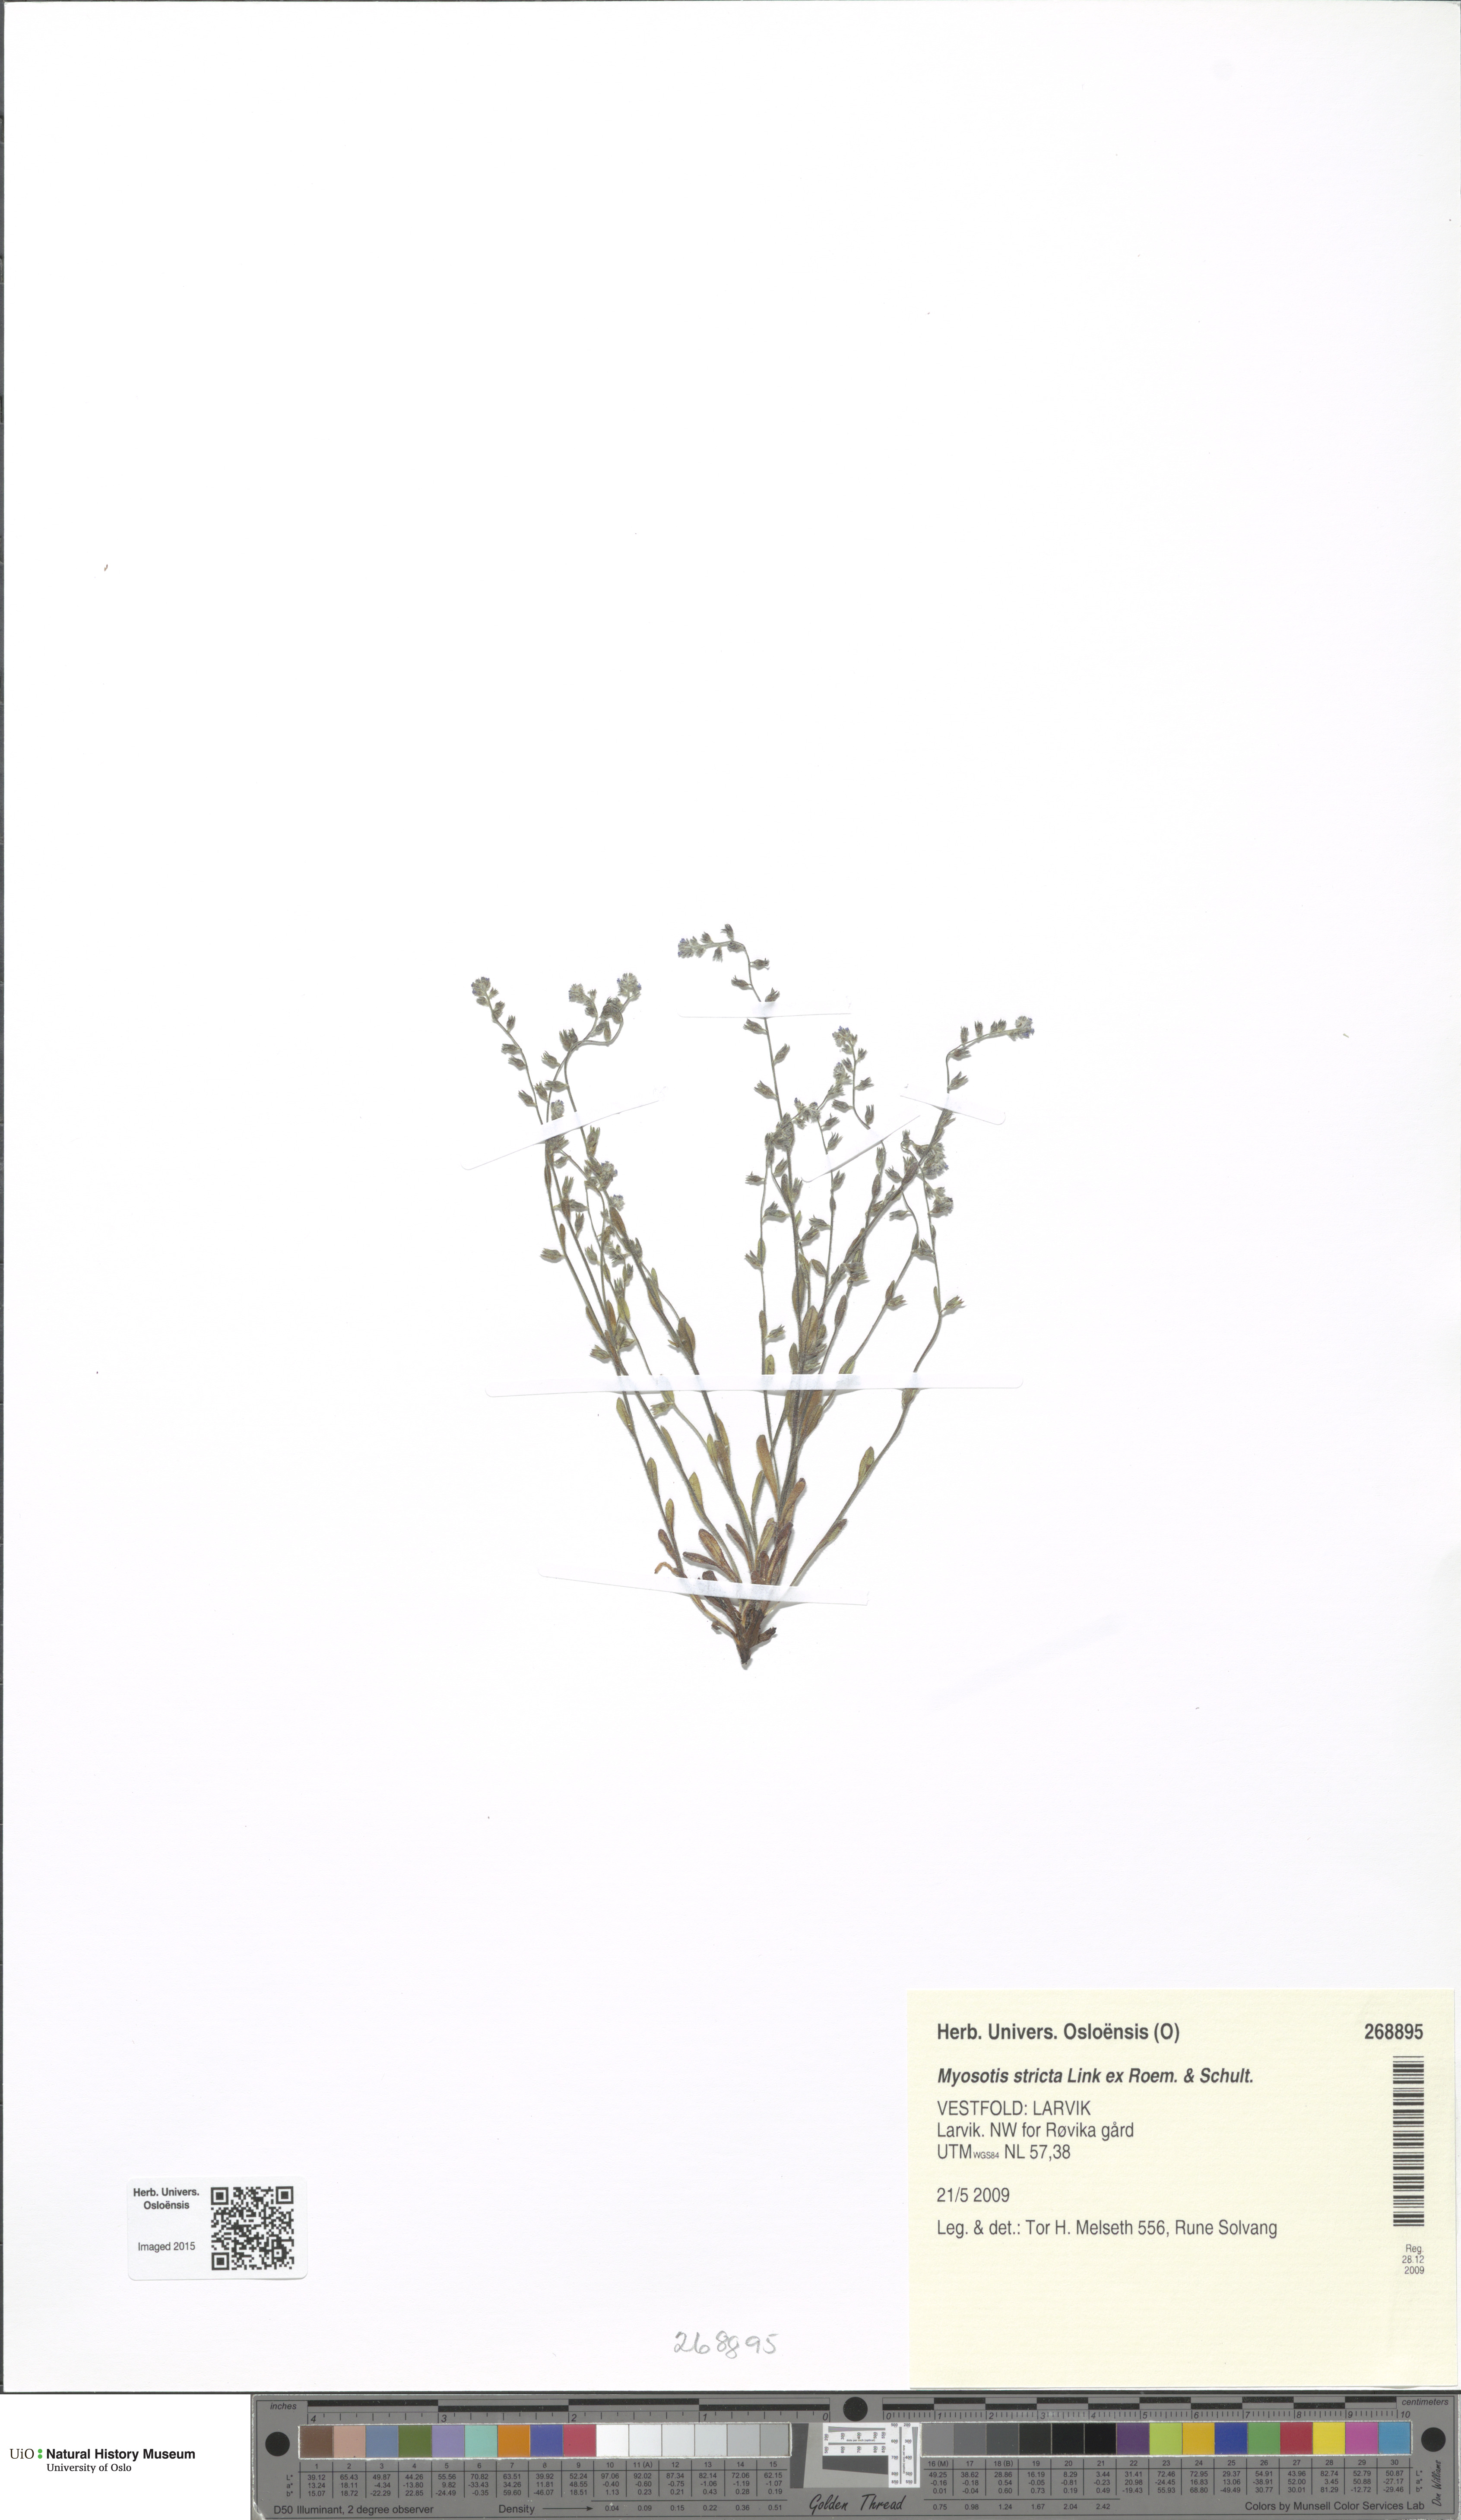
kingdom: Plantae
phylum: Tracheophyta
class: Magnoliopsida
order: Boraginales
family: Boraginaceae
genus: Myosotis
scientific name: Myosotis stricta
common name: Strict forget-me-not
